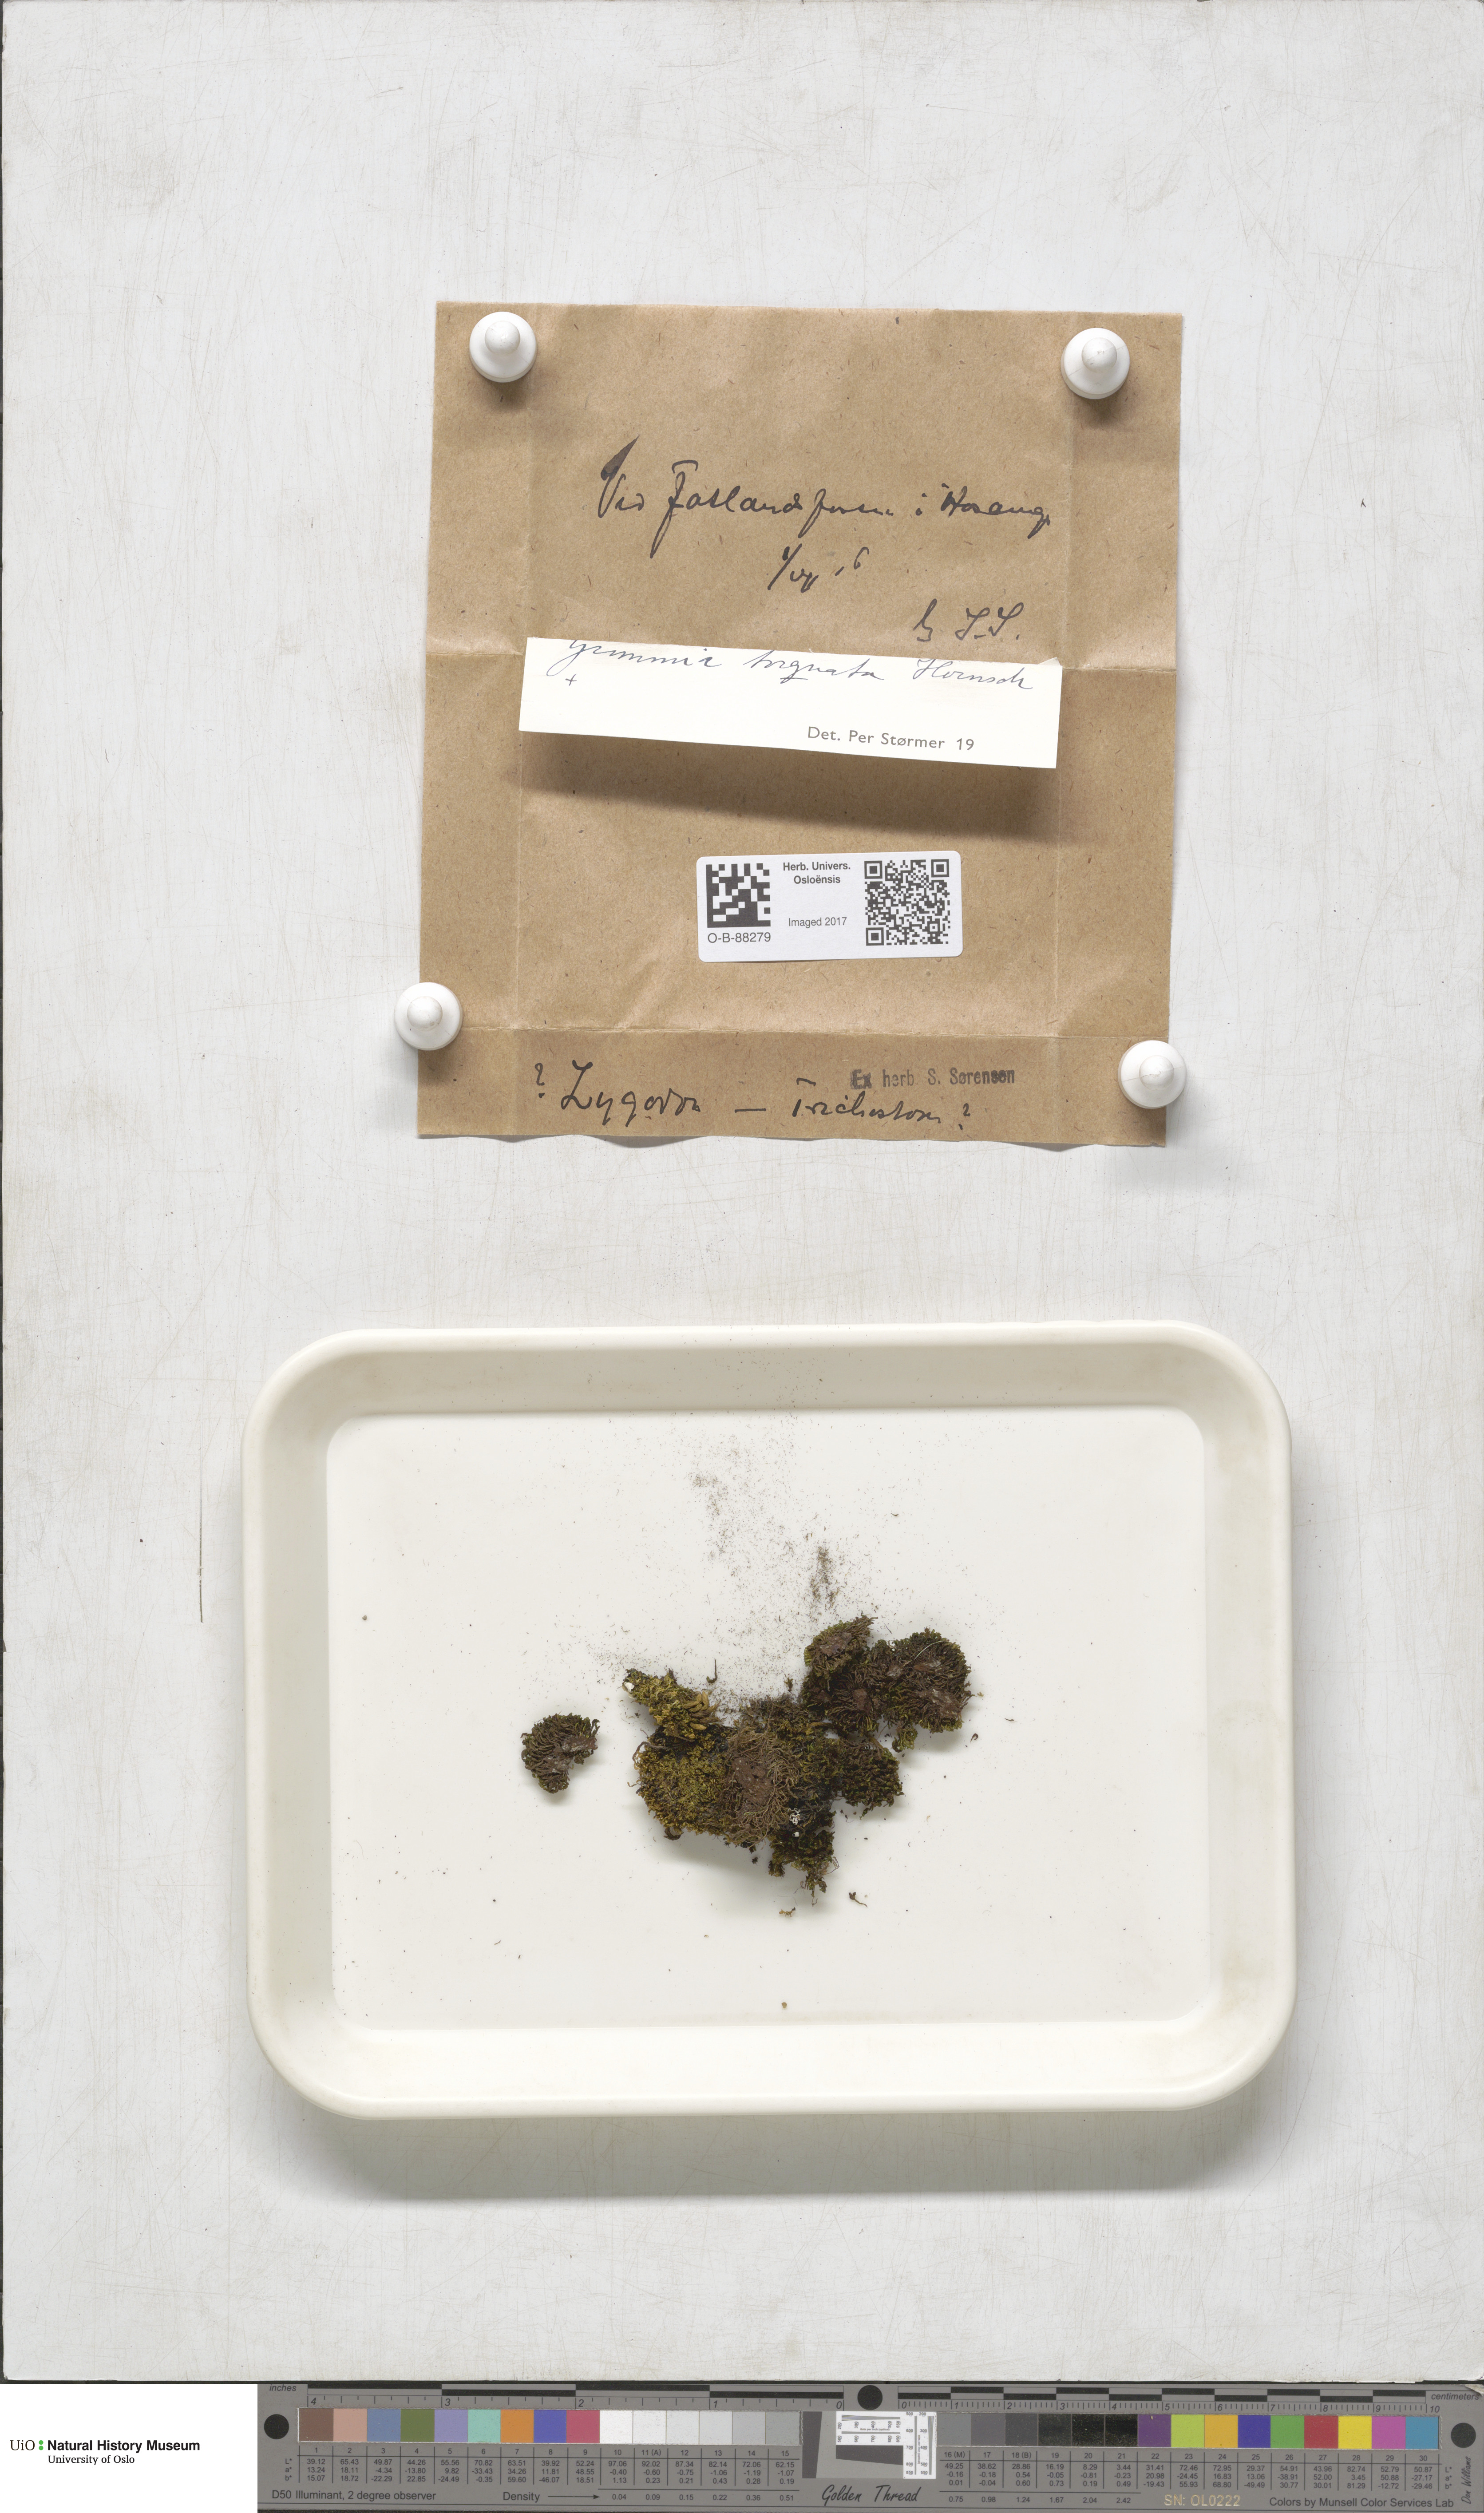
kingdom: Plantae
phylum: Bryophyta
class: Bryopsida
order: Grimmiales
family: Grimmiaceae
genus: Grimmia
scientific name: Grimmia torquata
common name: Twisted grimmia
